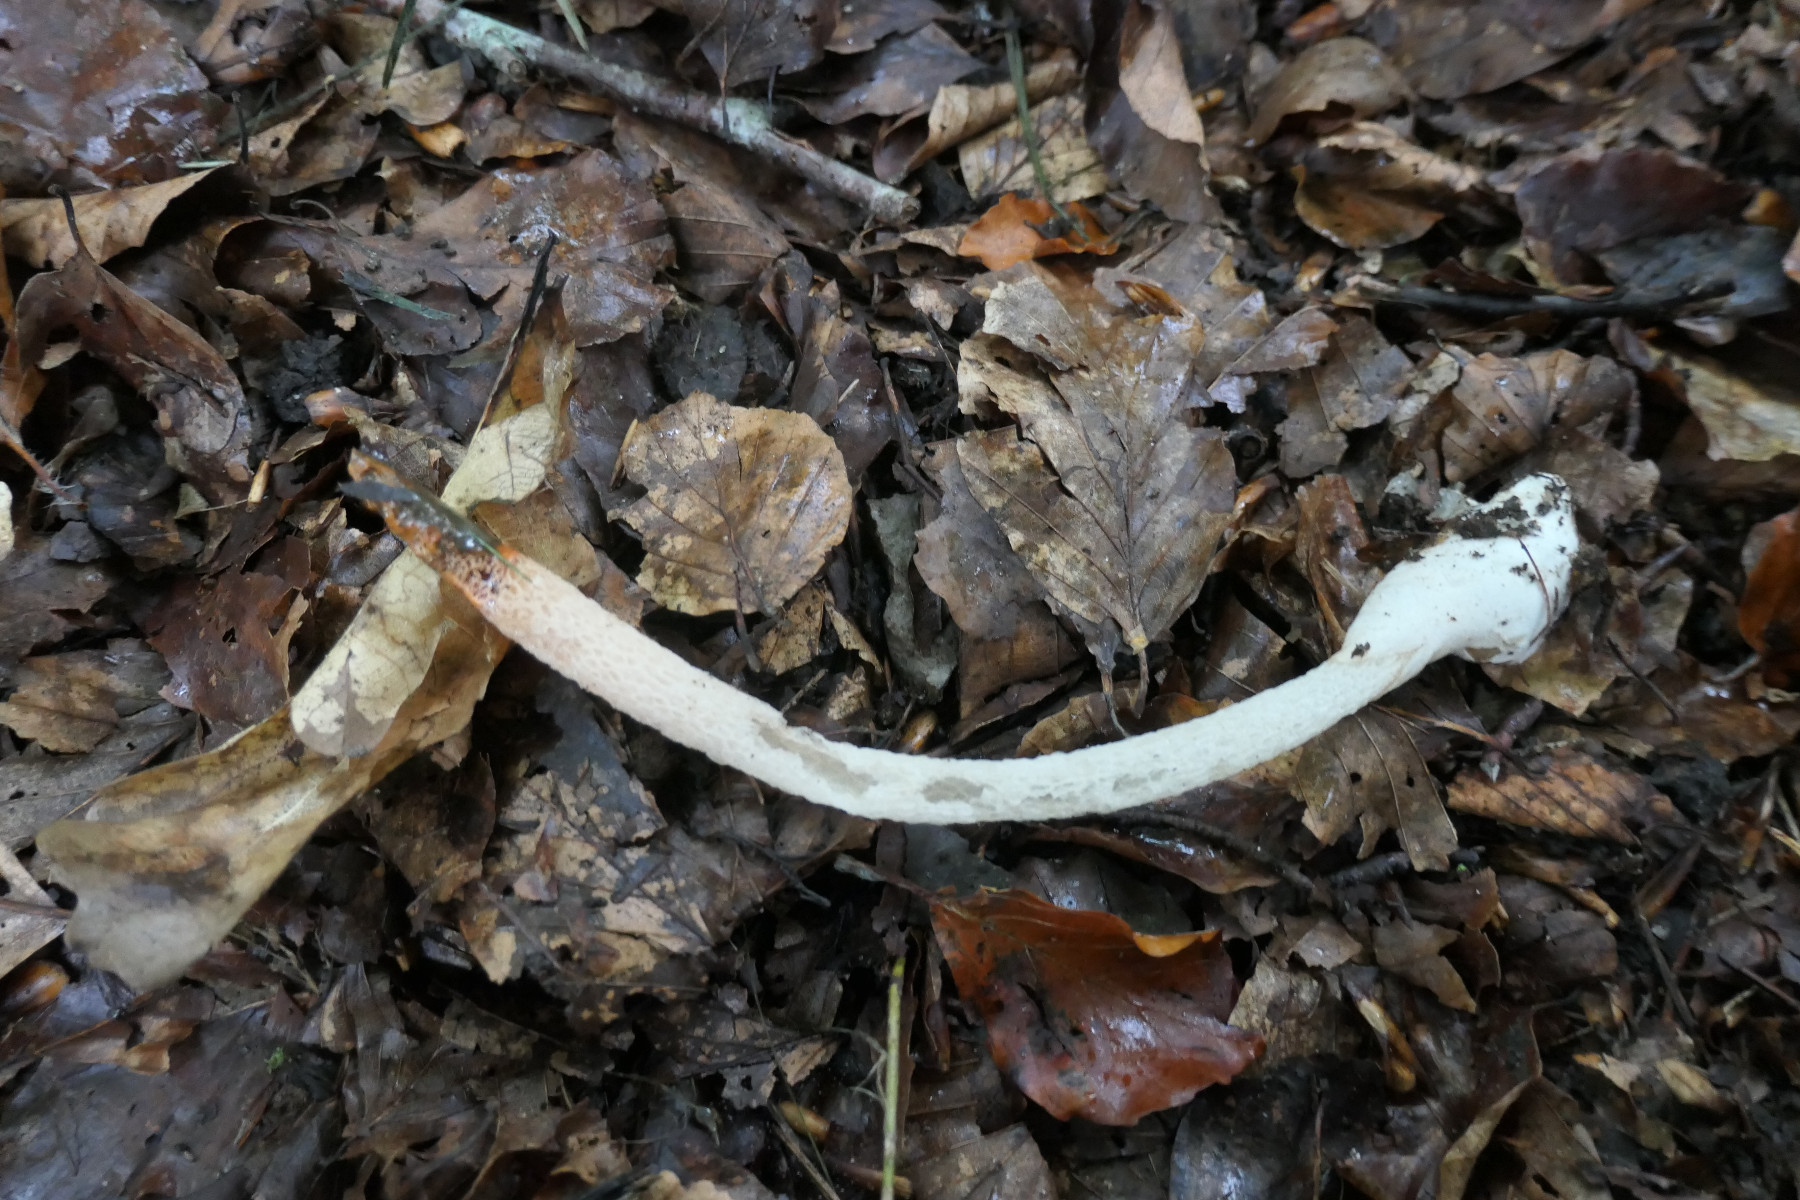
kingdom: Fungi
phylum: Basidiomycota
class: Agaricomycetes
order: Phallales
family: Phallaceae
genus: Mutinus
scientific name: Mutinus caninus
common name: hunde-stinksvamp
